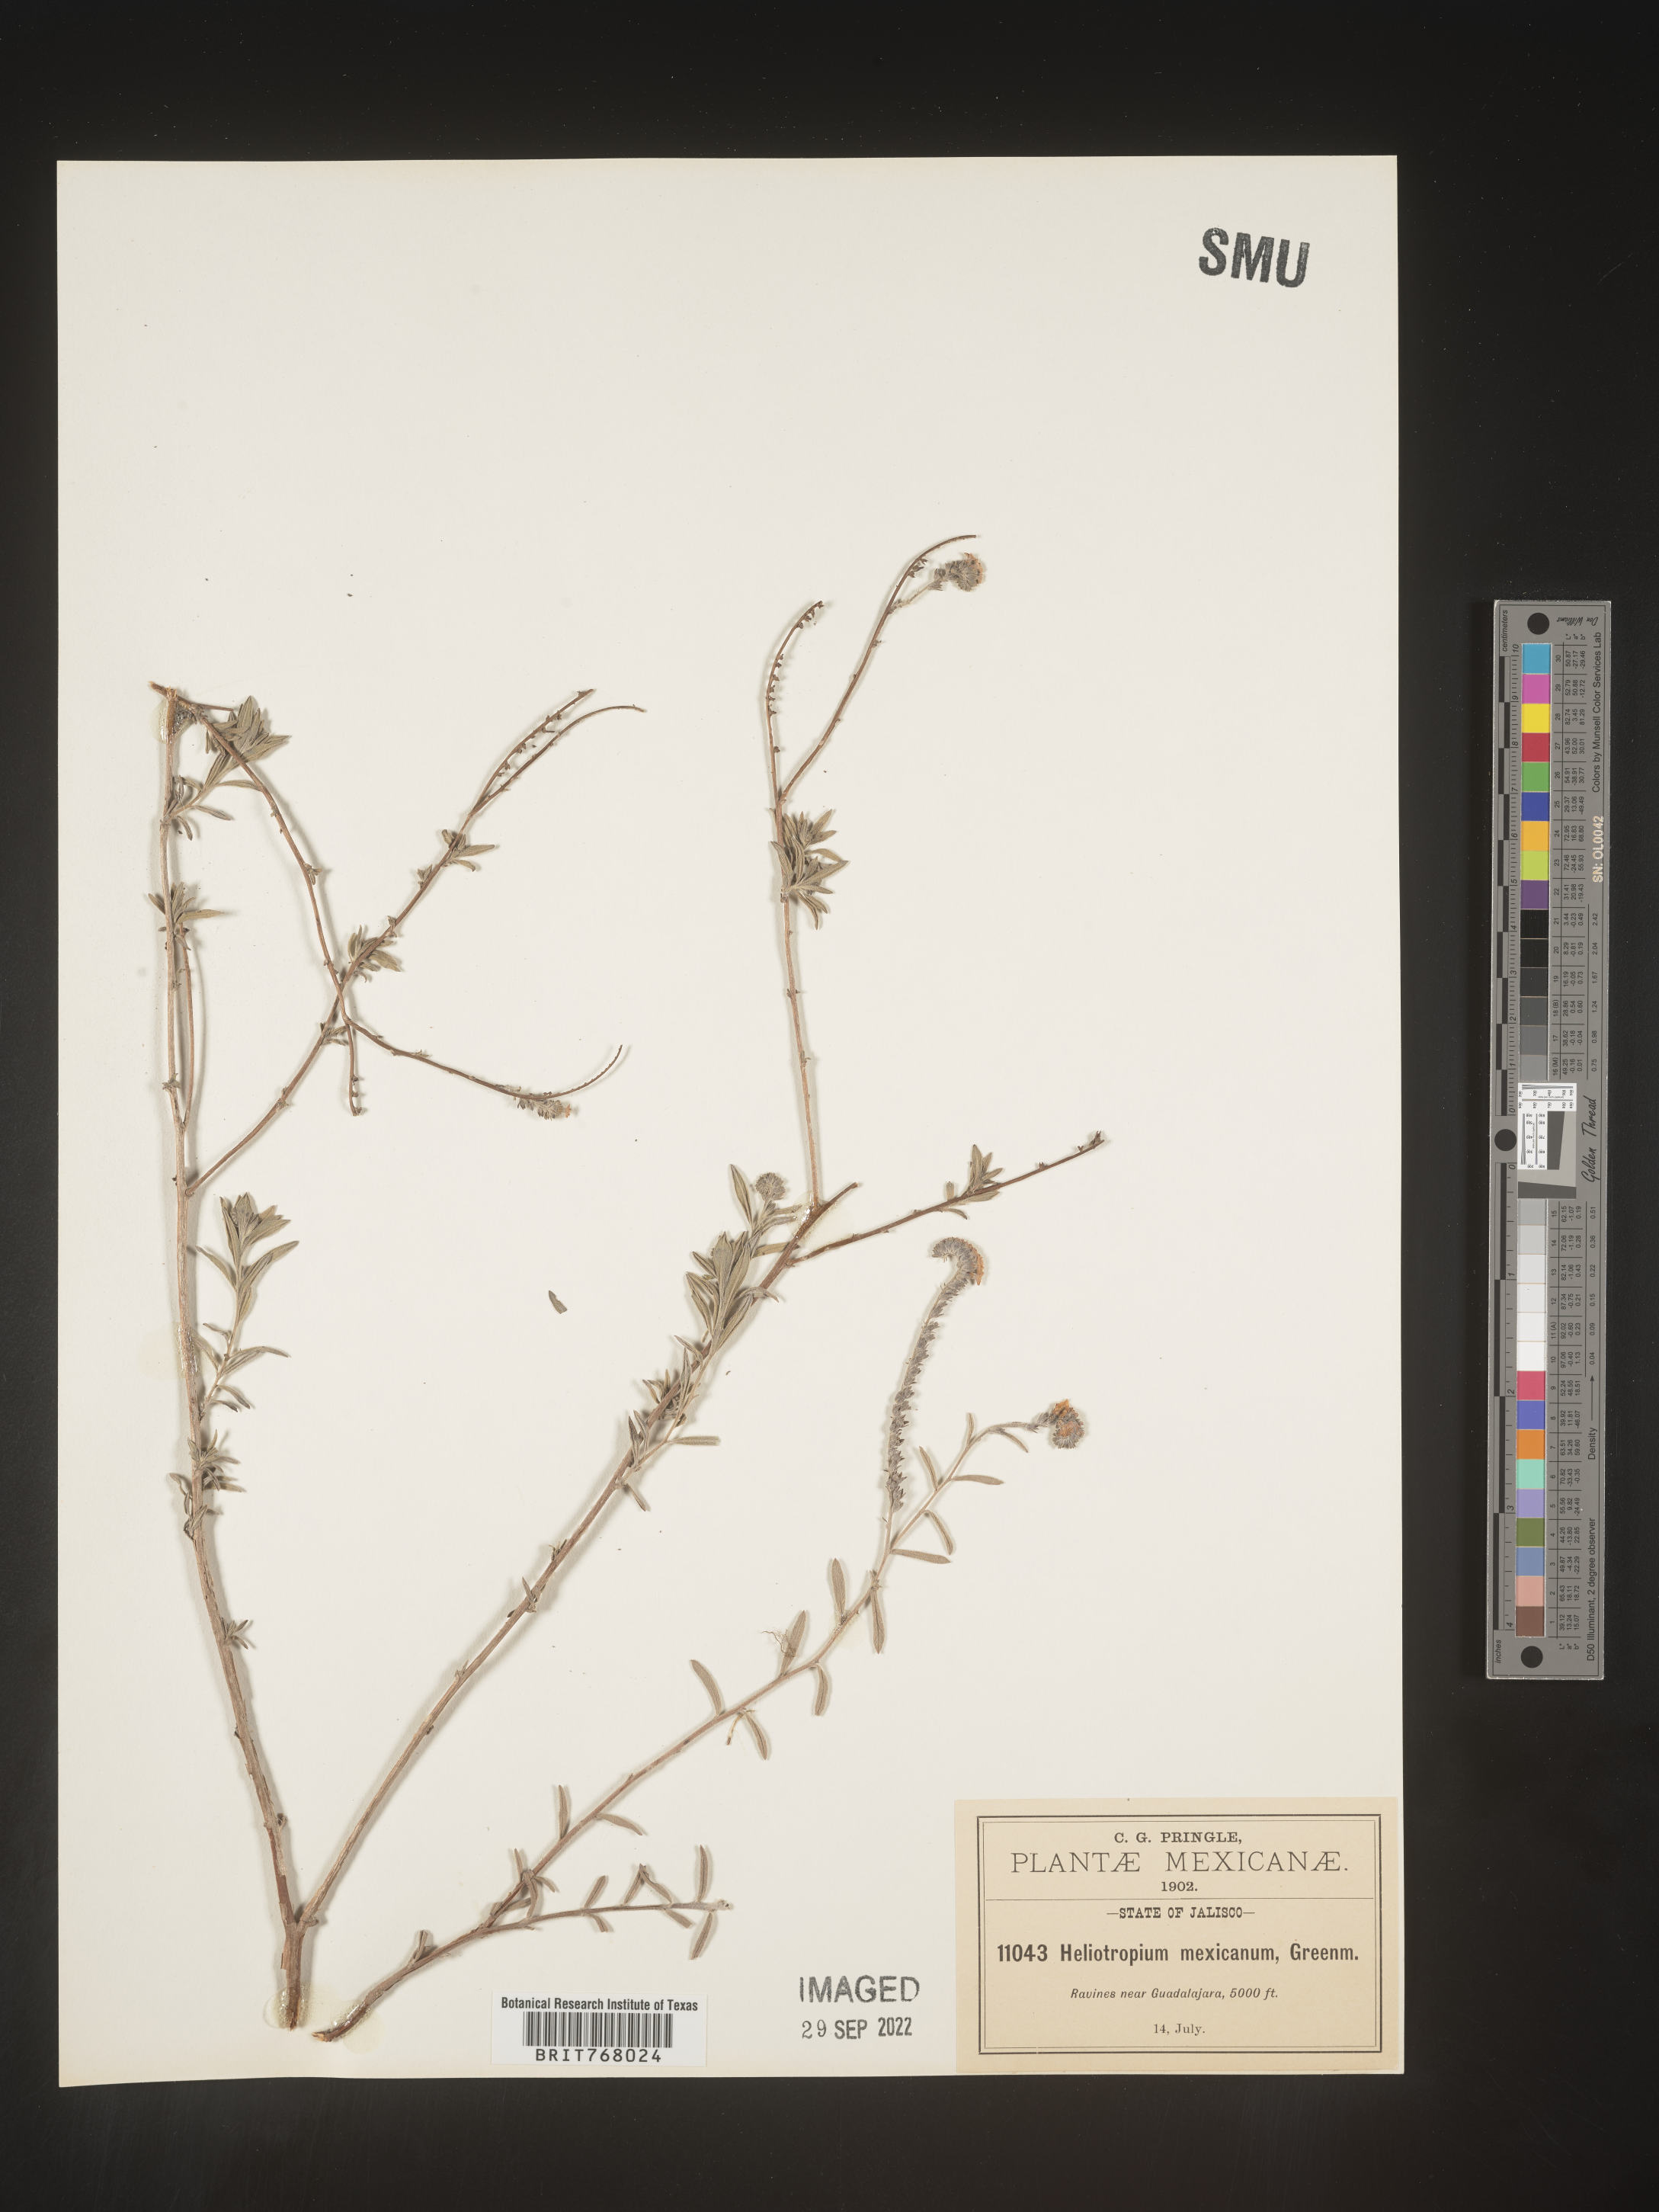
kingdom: Plantae
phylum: Tracheophyta
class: Magnoliopsida
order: Boraginales
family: Heliotropiaceae
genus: Heliotropium
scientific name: Heliotropium
